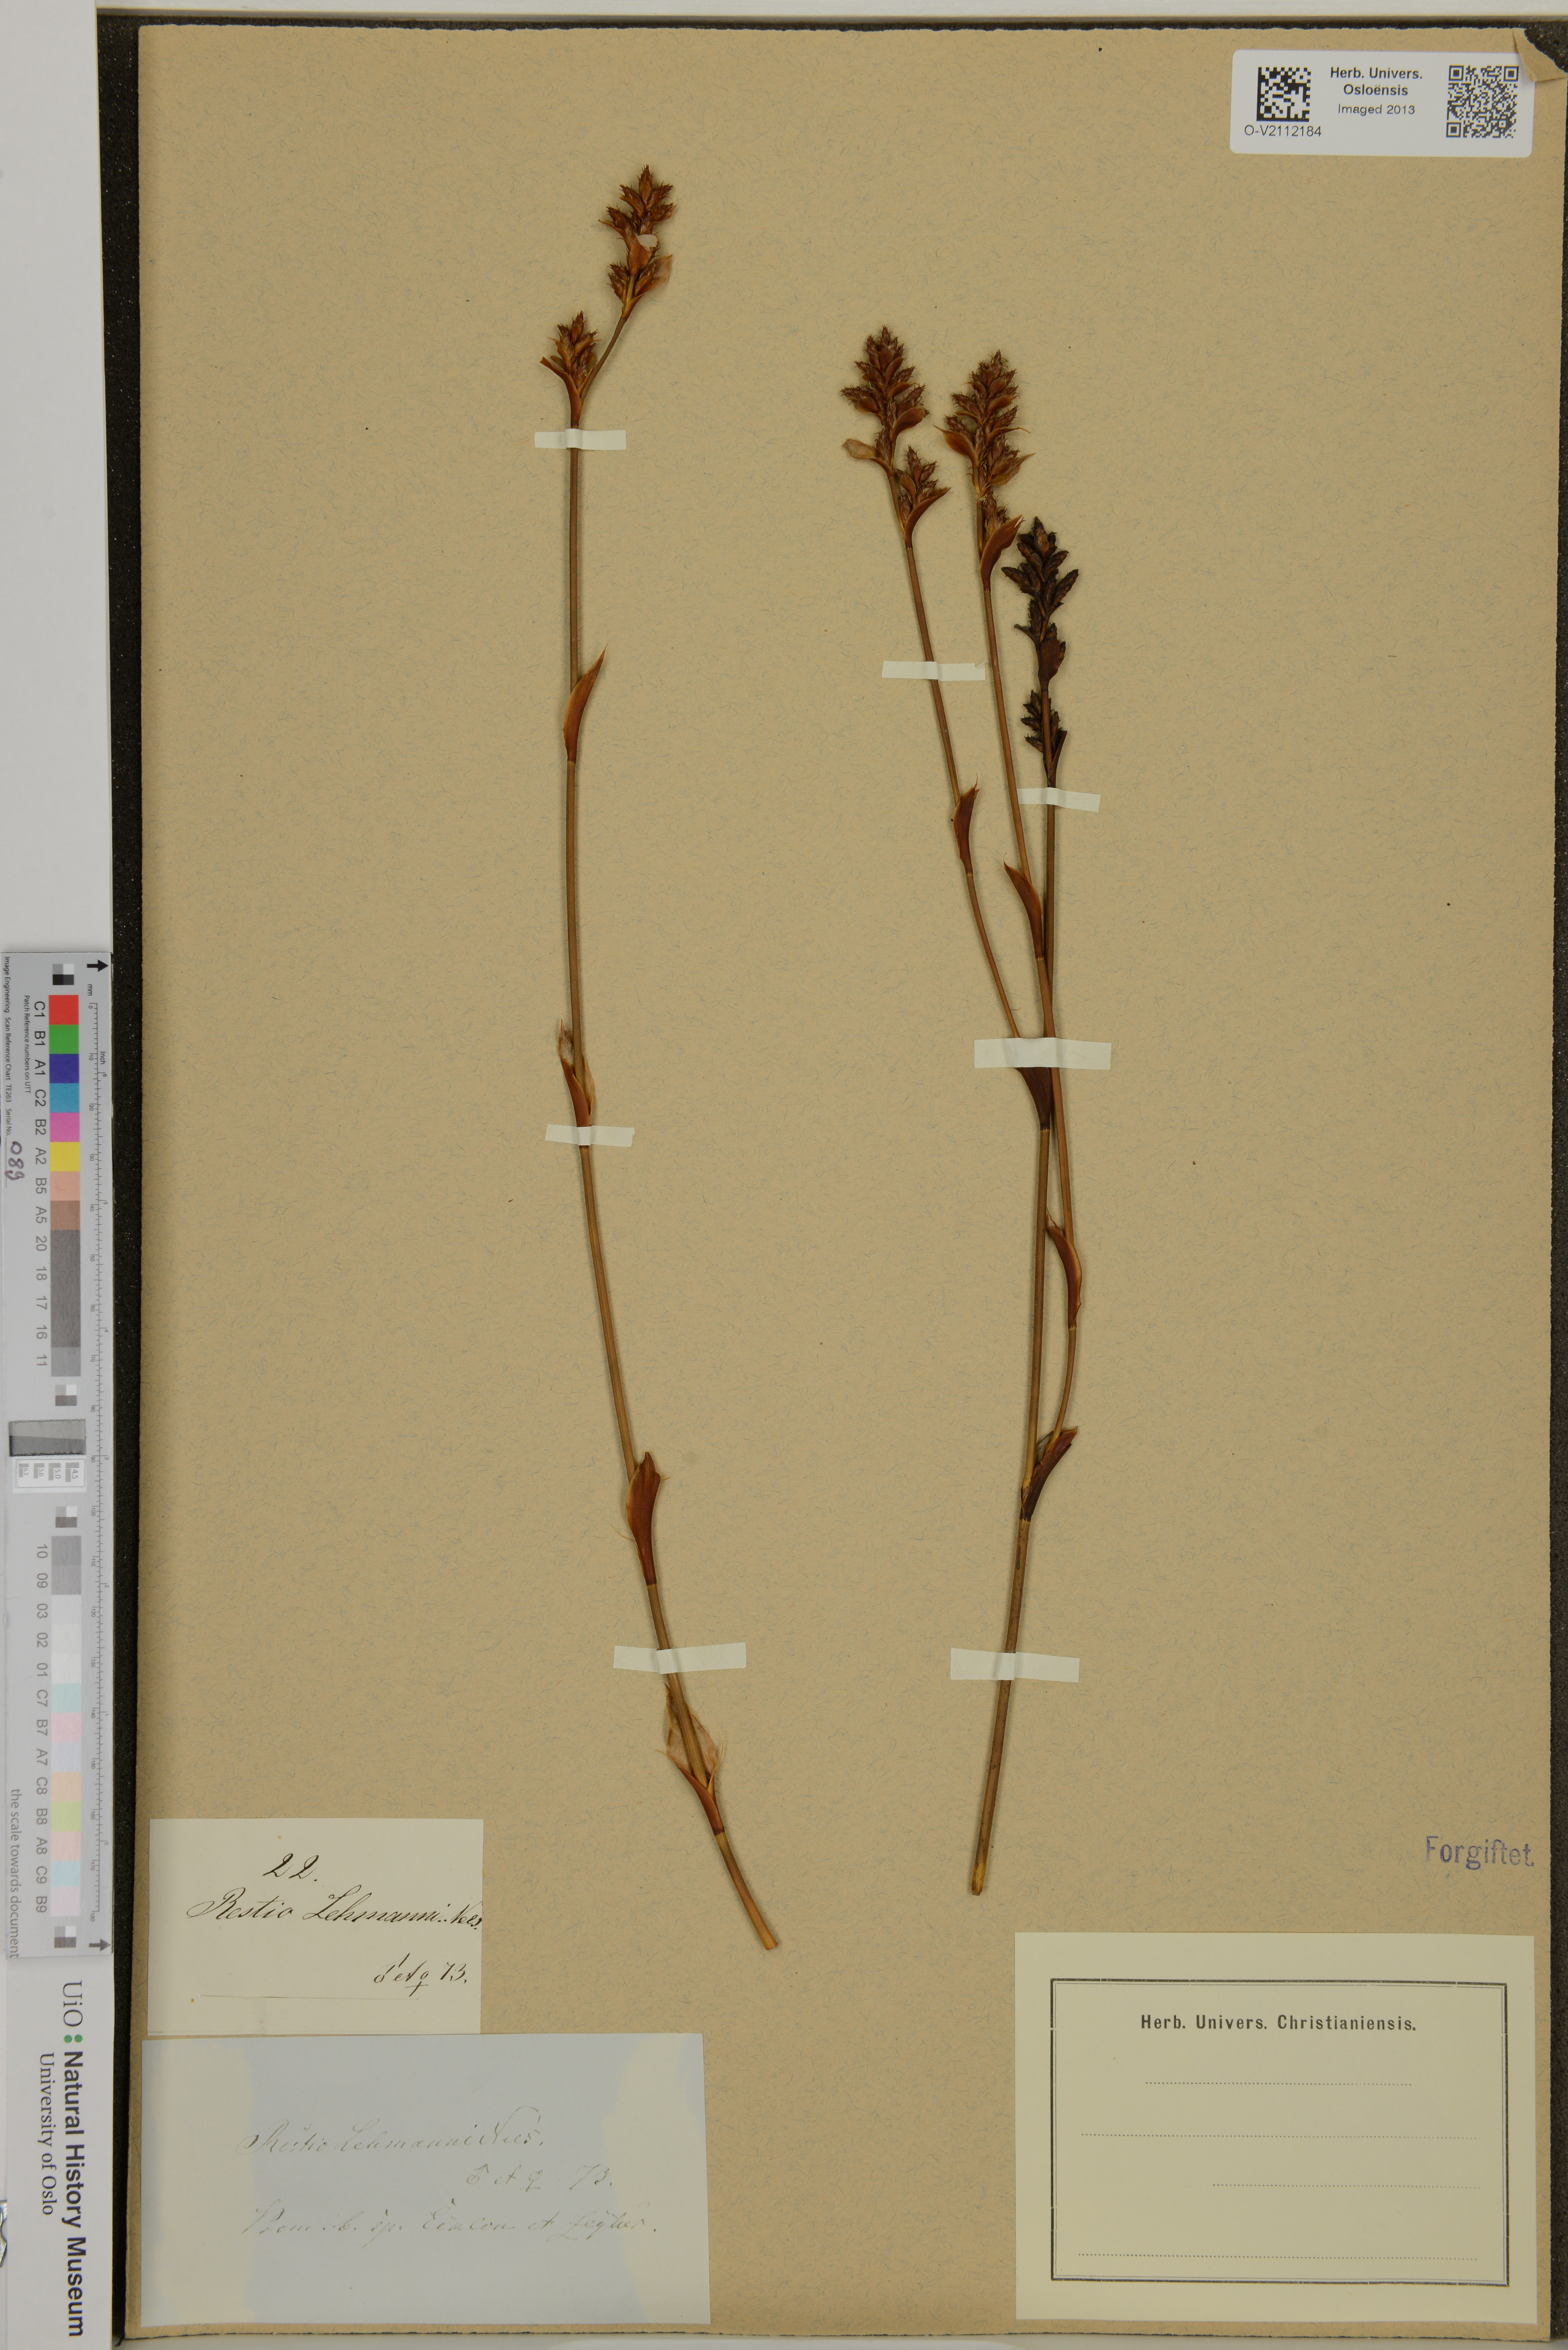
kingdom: Plantae
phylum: Tracheophyta
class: Liliopsida
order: Poales
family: Restionaceae
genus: Restio
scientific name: Restio ocreatus
